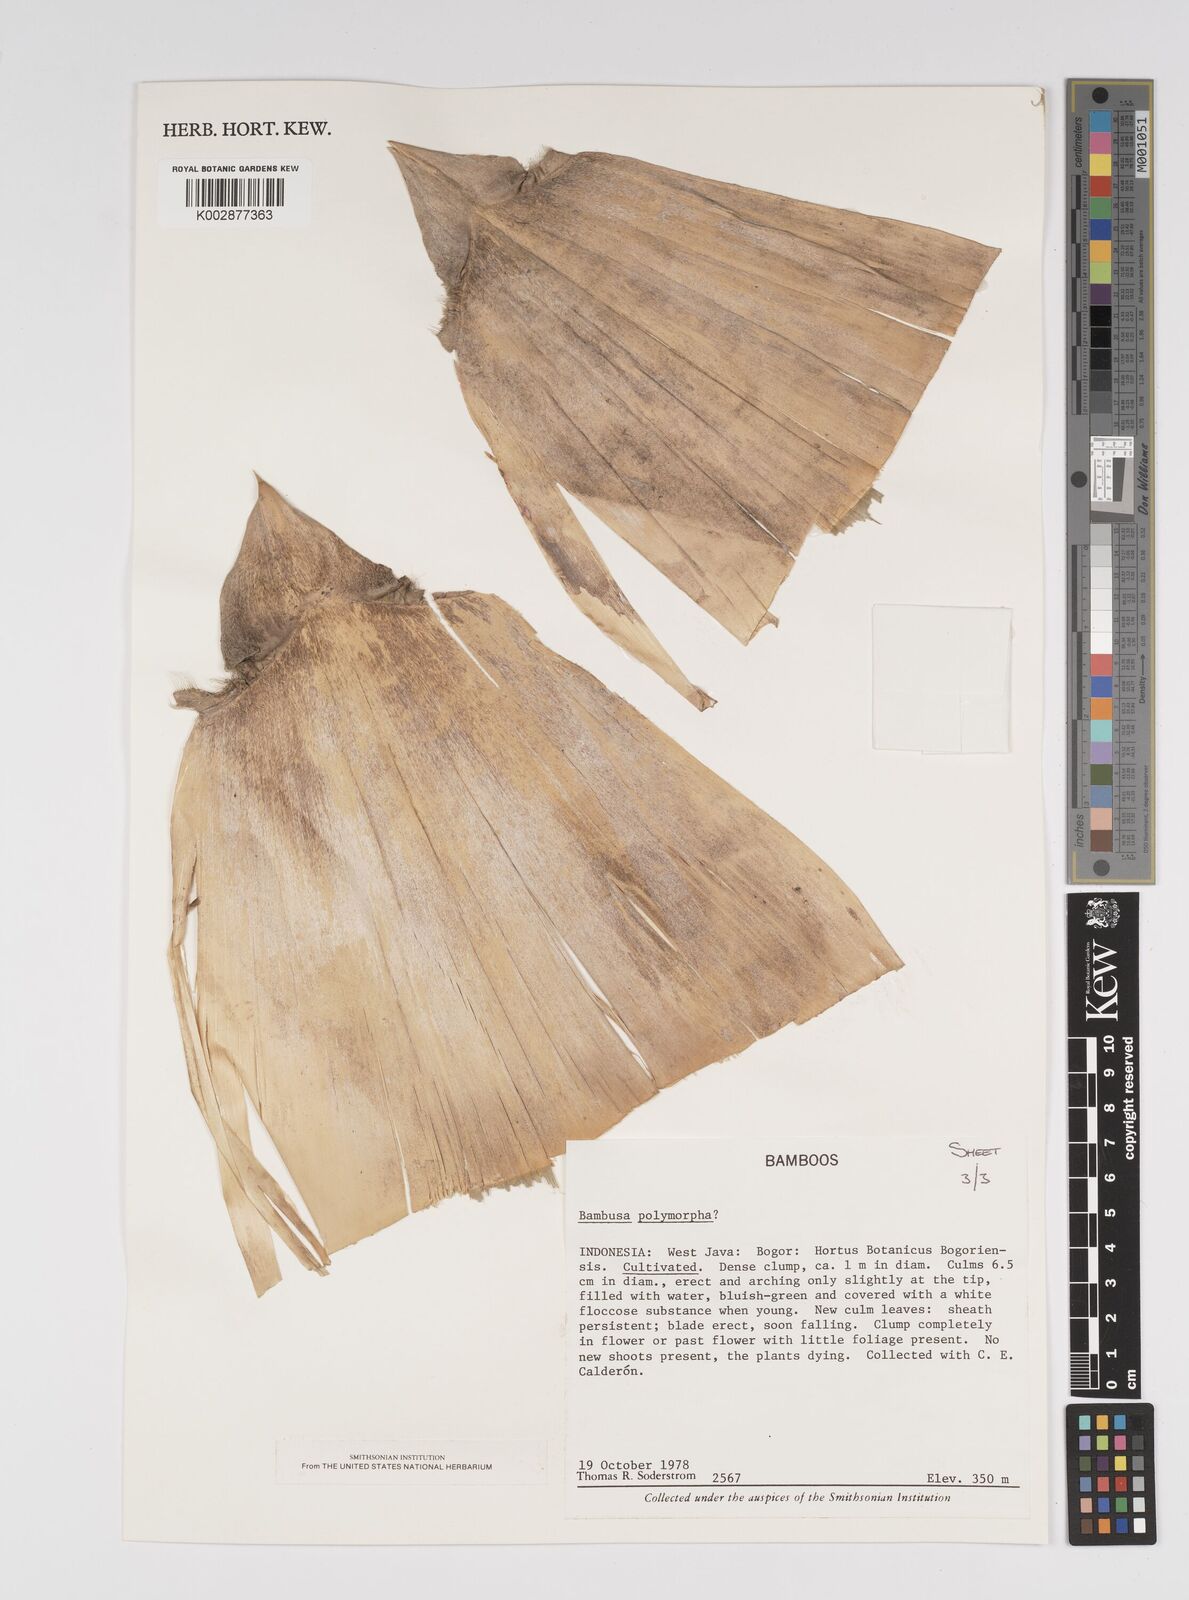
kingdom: Plantae
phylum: Tracheophyta
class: Liliopsida
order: Poales
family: Poaceae
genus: Bambusa
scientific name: Bambusa
